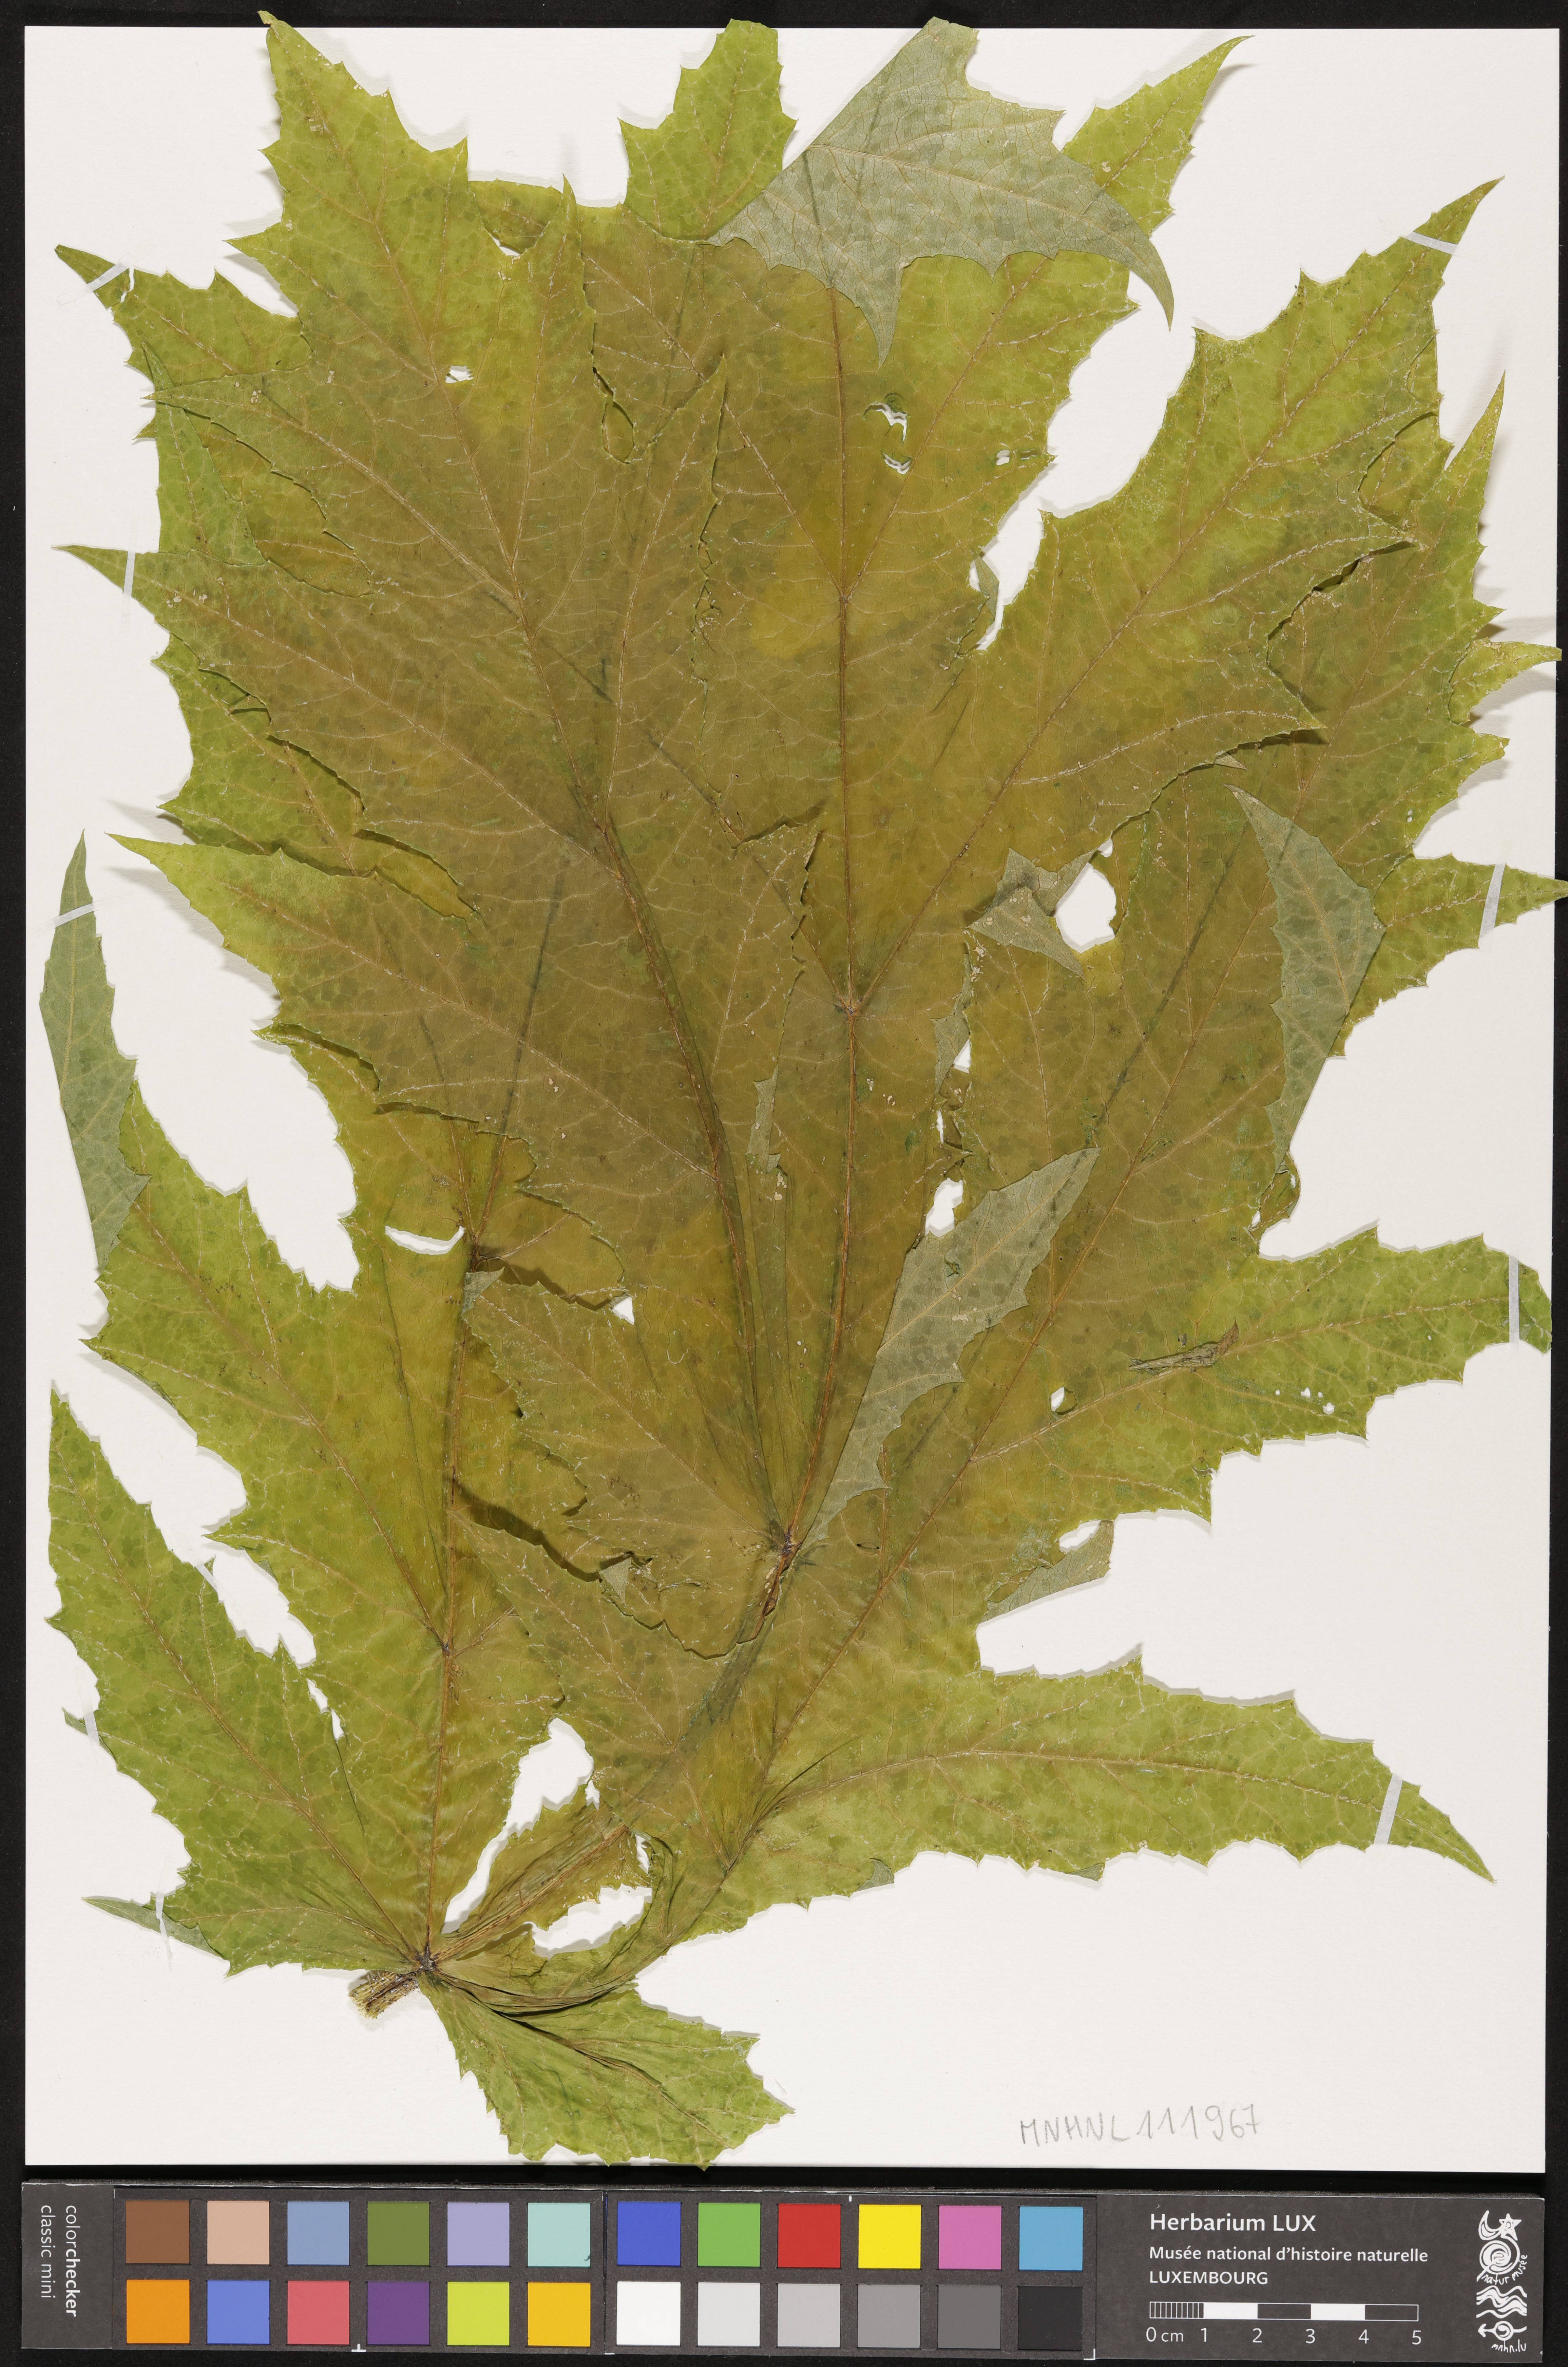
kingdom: Plantae
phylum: Tracheophyta
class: Magnoliopsida
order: Apiales
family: Apiaceae
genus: Heracleum
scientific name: Heracleum mantegazzianum
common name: Giant hogweed
